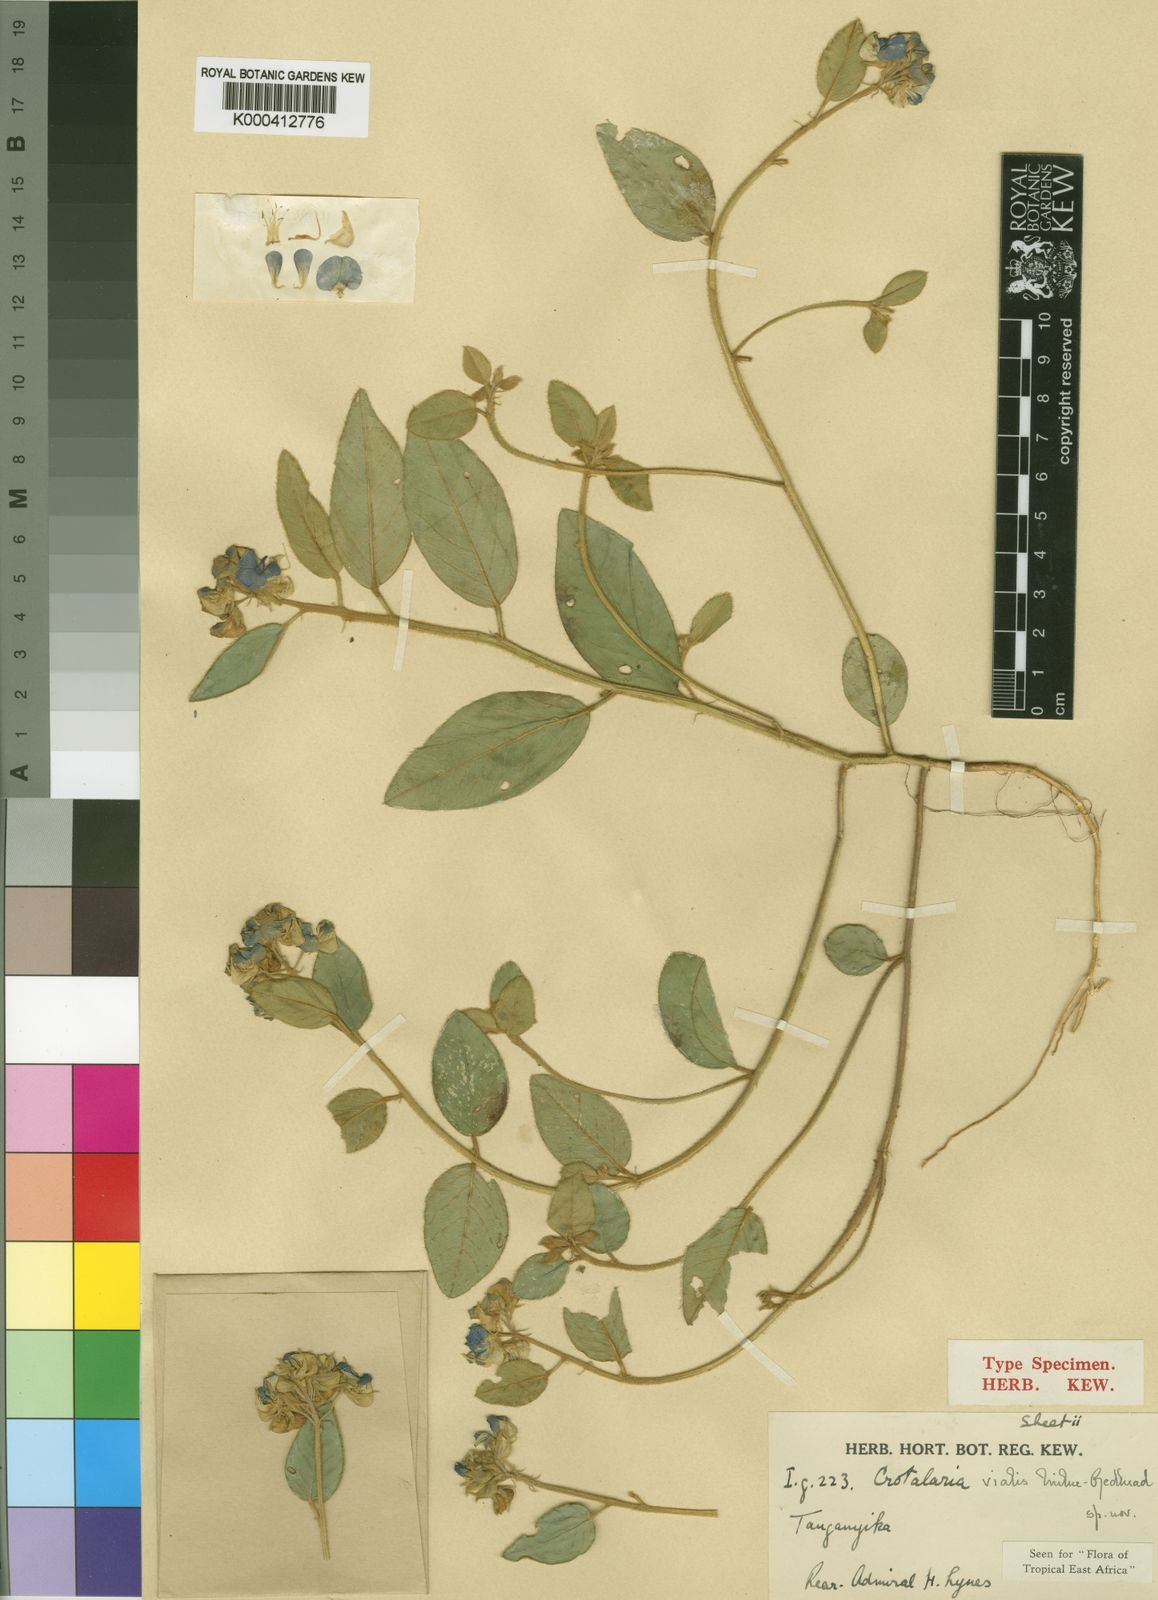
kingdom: Plantae
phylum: Tracheophyta
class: Magnoliopsida
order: Fabales
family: Fabaceae
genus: Crotalaria
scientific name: Crotalaria vialis
